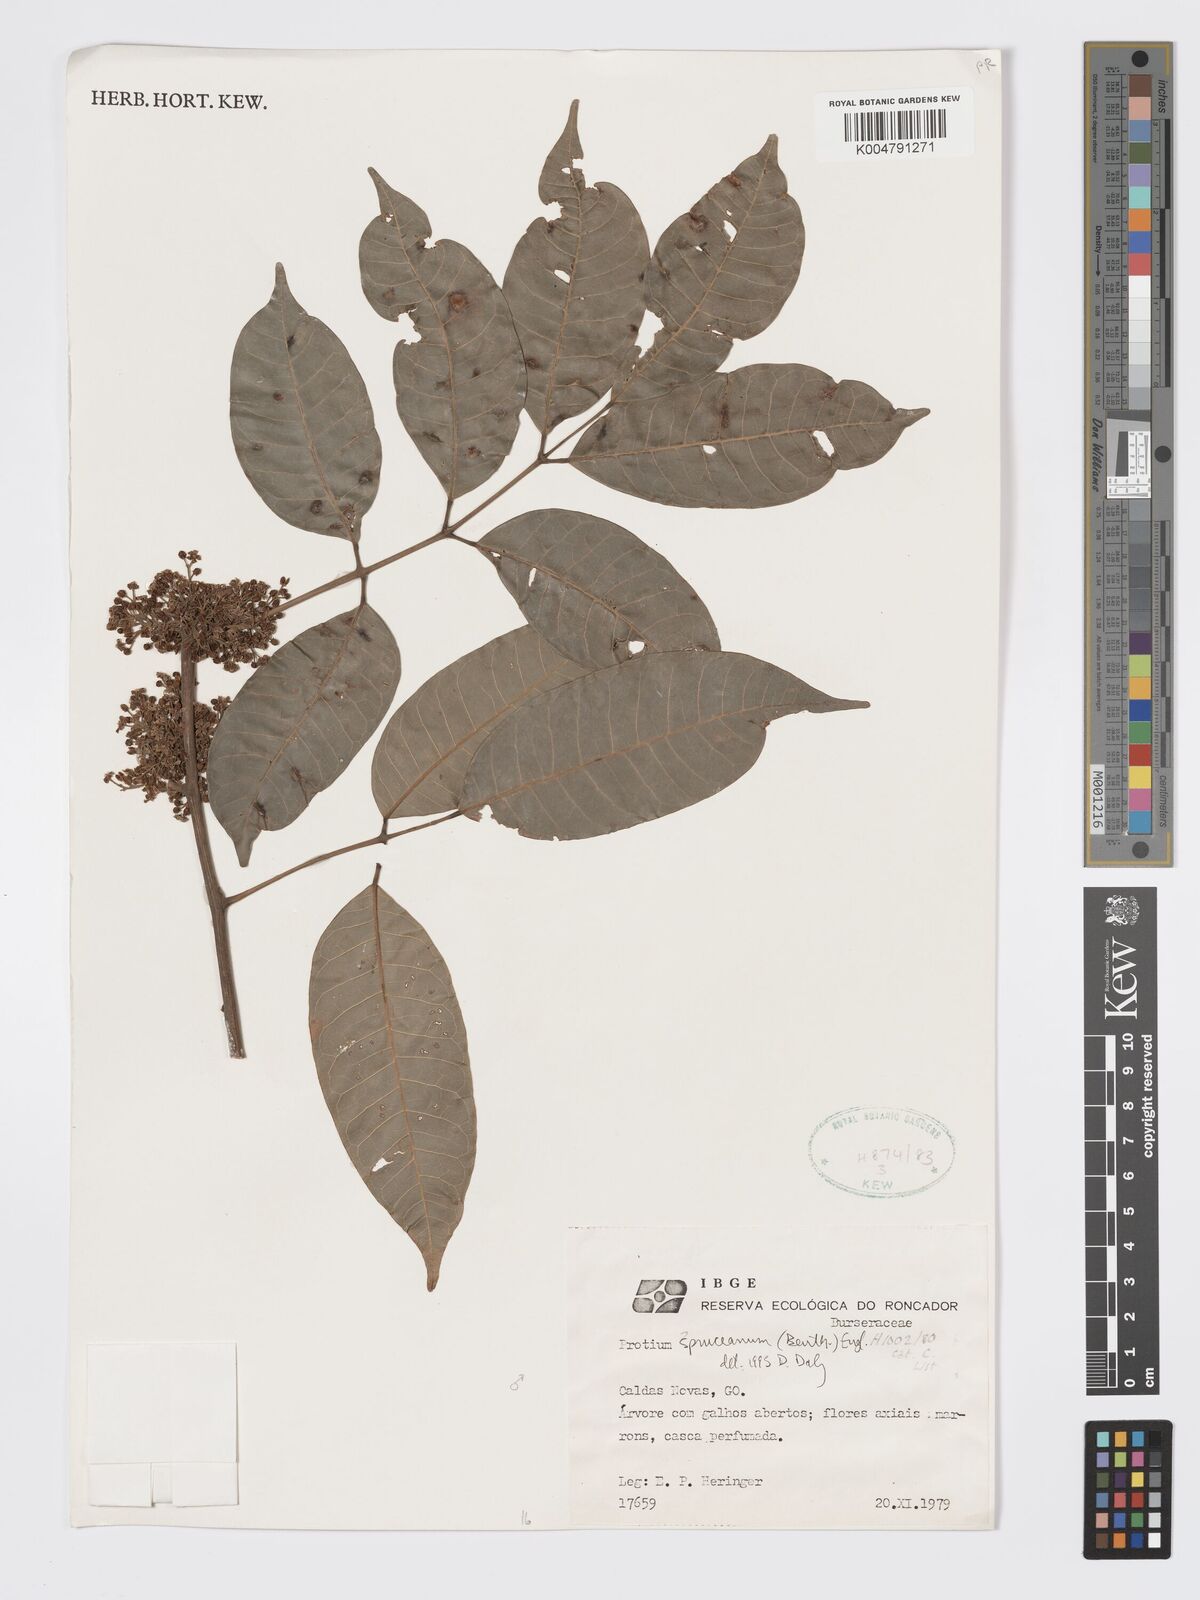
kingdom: Plantae
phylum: Tracheophyta
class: Magnoliopsida
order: Sapindales
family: Burseraceae
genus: Protium
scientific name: Protium spruceanum
